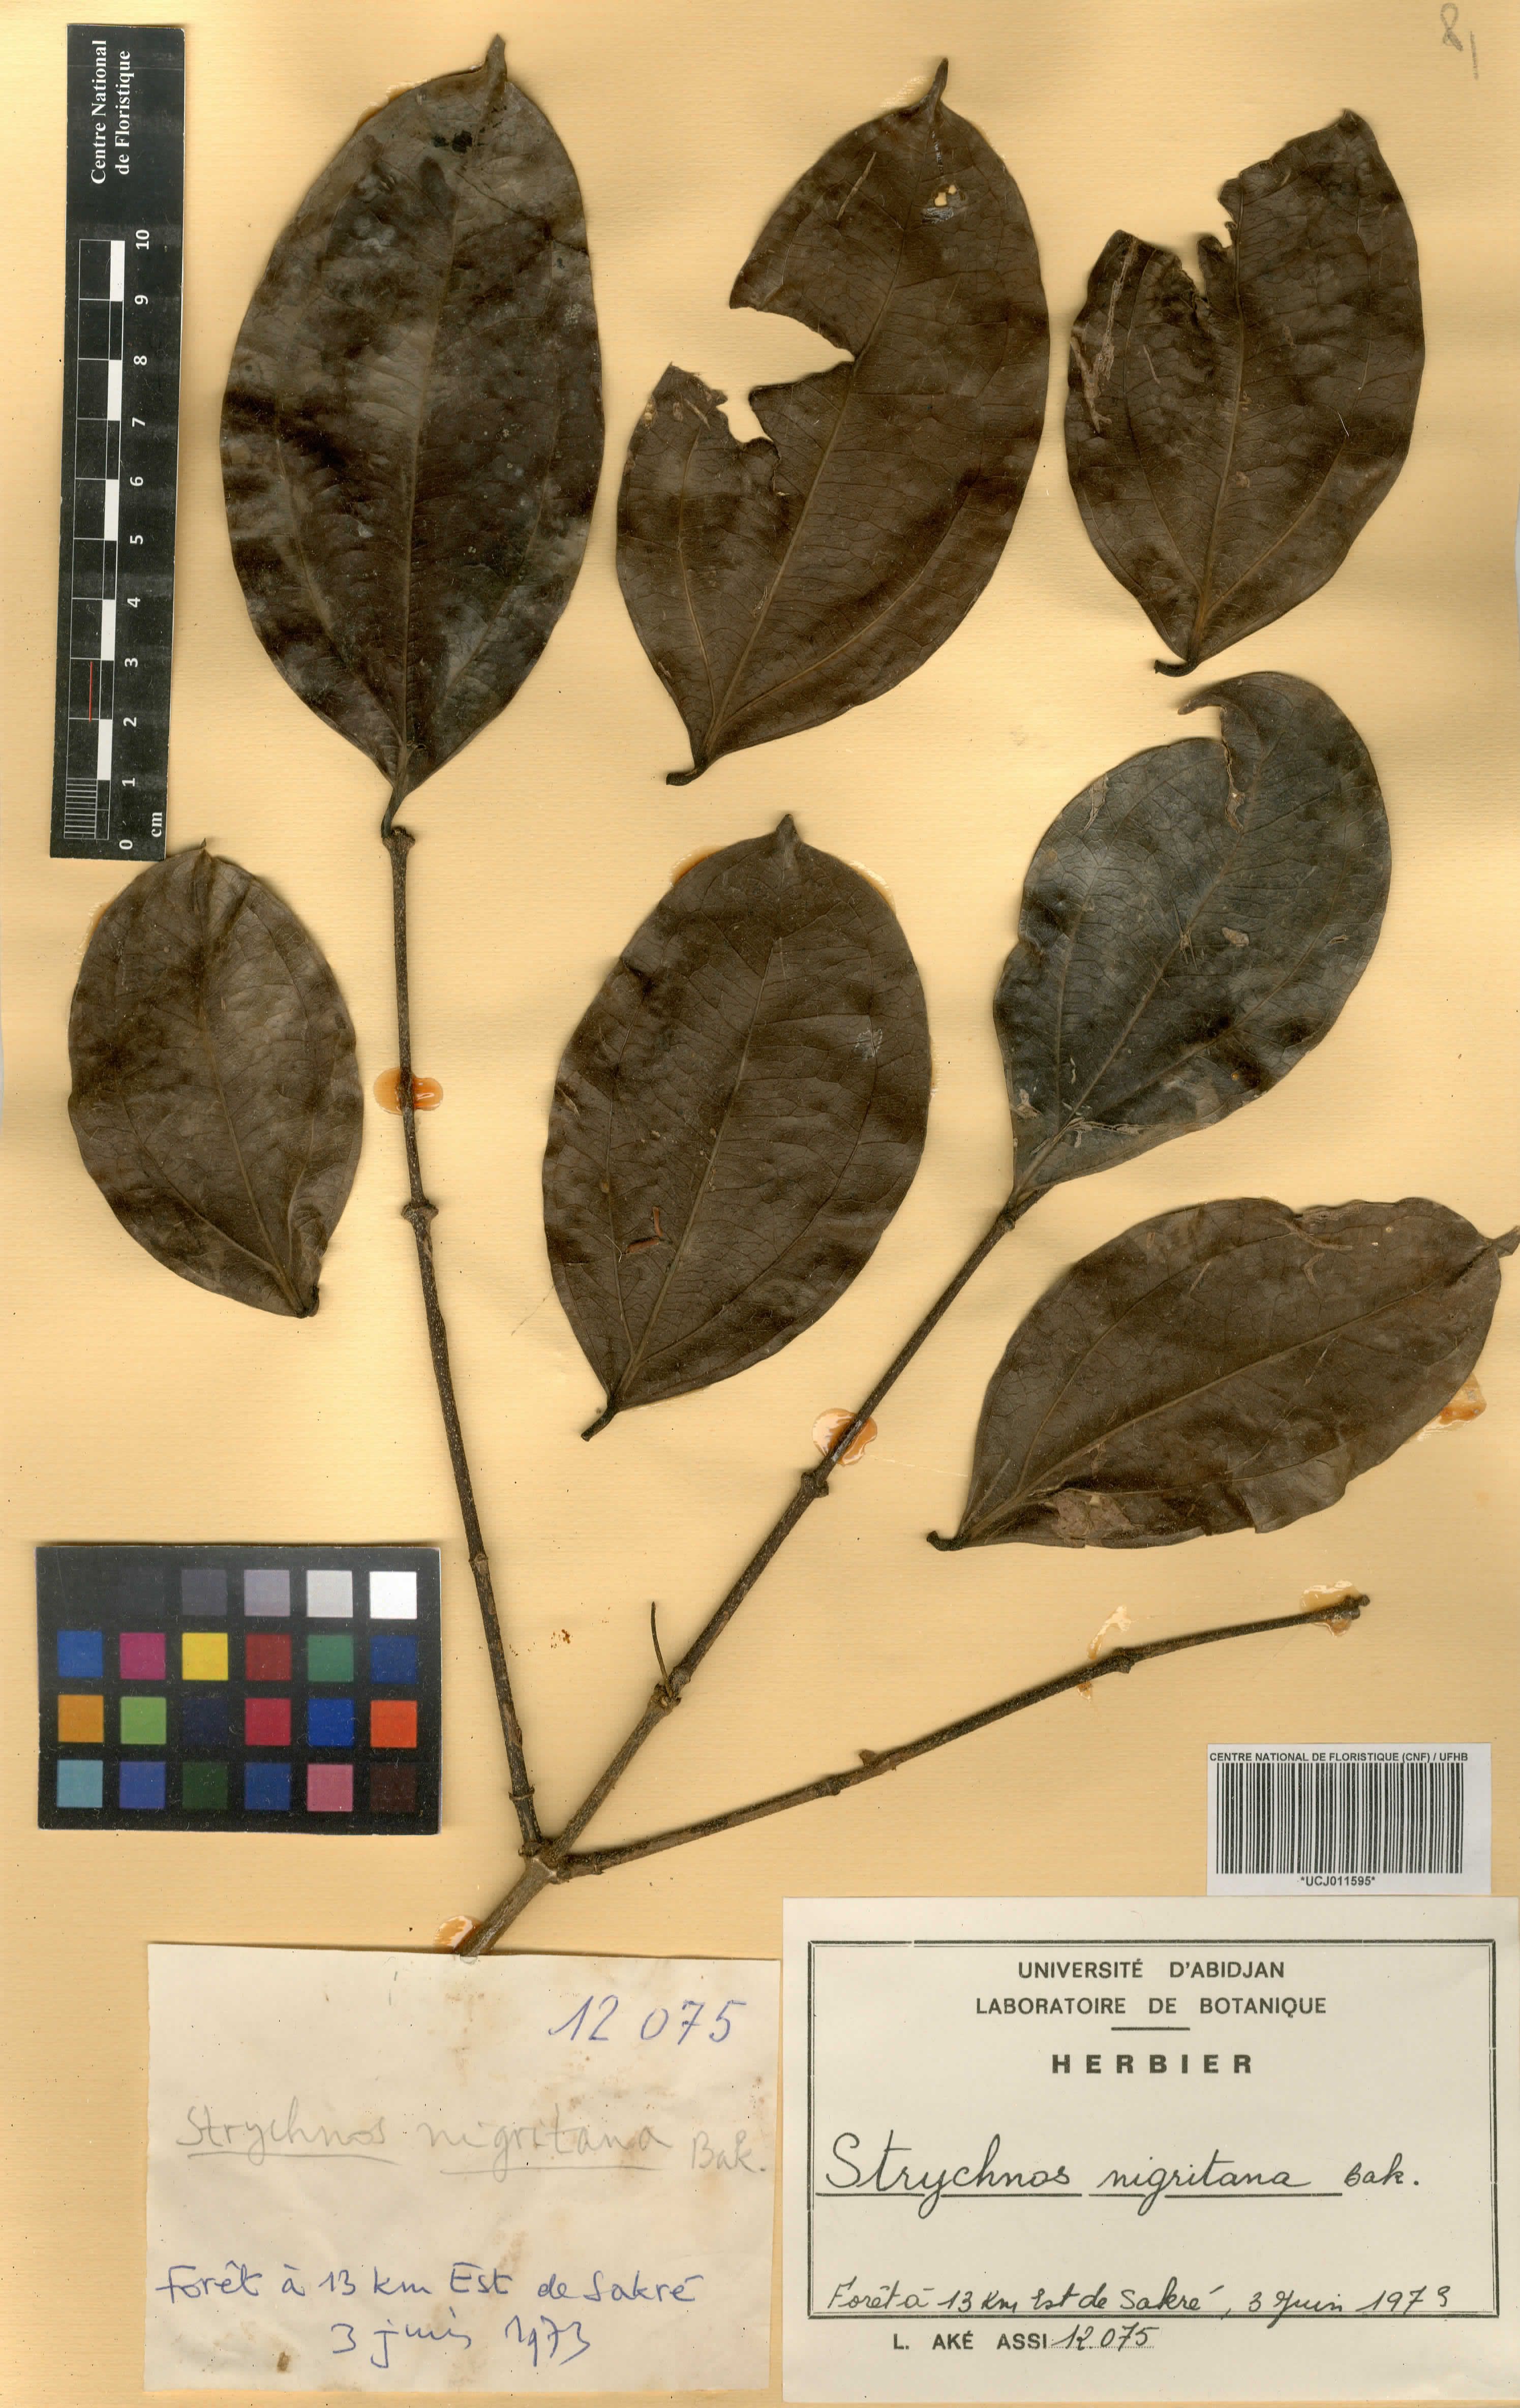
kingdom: Plantae
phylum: Tracheophyta
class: Magnoliopsida
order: Gentianales
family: Loganiaceae
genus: Strychnos
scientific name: Strychnos nigritana
